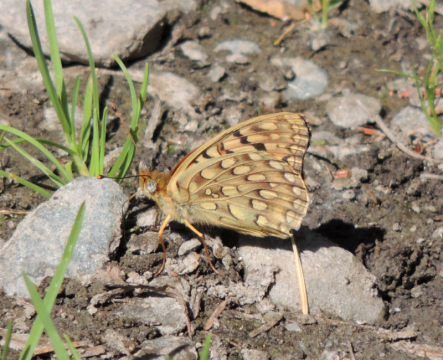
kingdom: Animalia
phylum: Arthropoda
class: Insecta
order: Lepidoptera
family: Nymphalidae
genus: Speyeria
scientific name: Speyeria mormonia
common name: Mormon Fritillary
